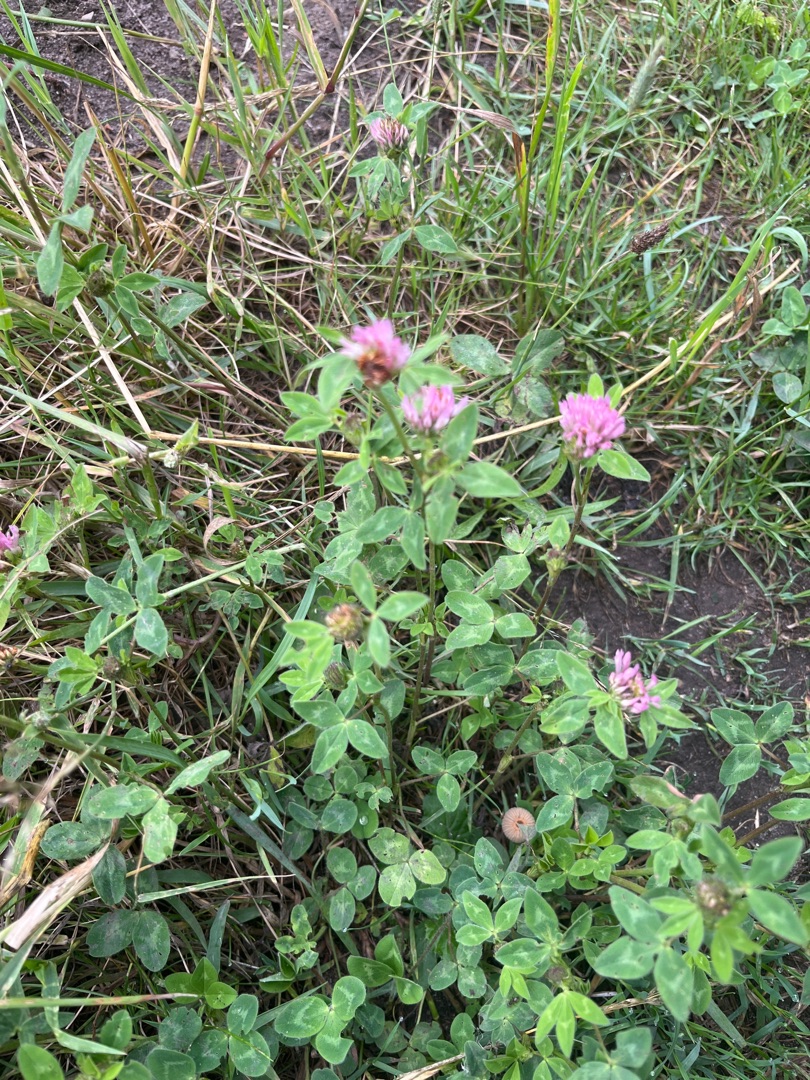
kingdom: Plantae
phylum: Tracheophyta
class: Magnoliopsida
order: Fabales
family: Fabaceae
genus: Trifolium
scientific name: Trifolium pratense
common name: Rød-kløver
